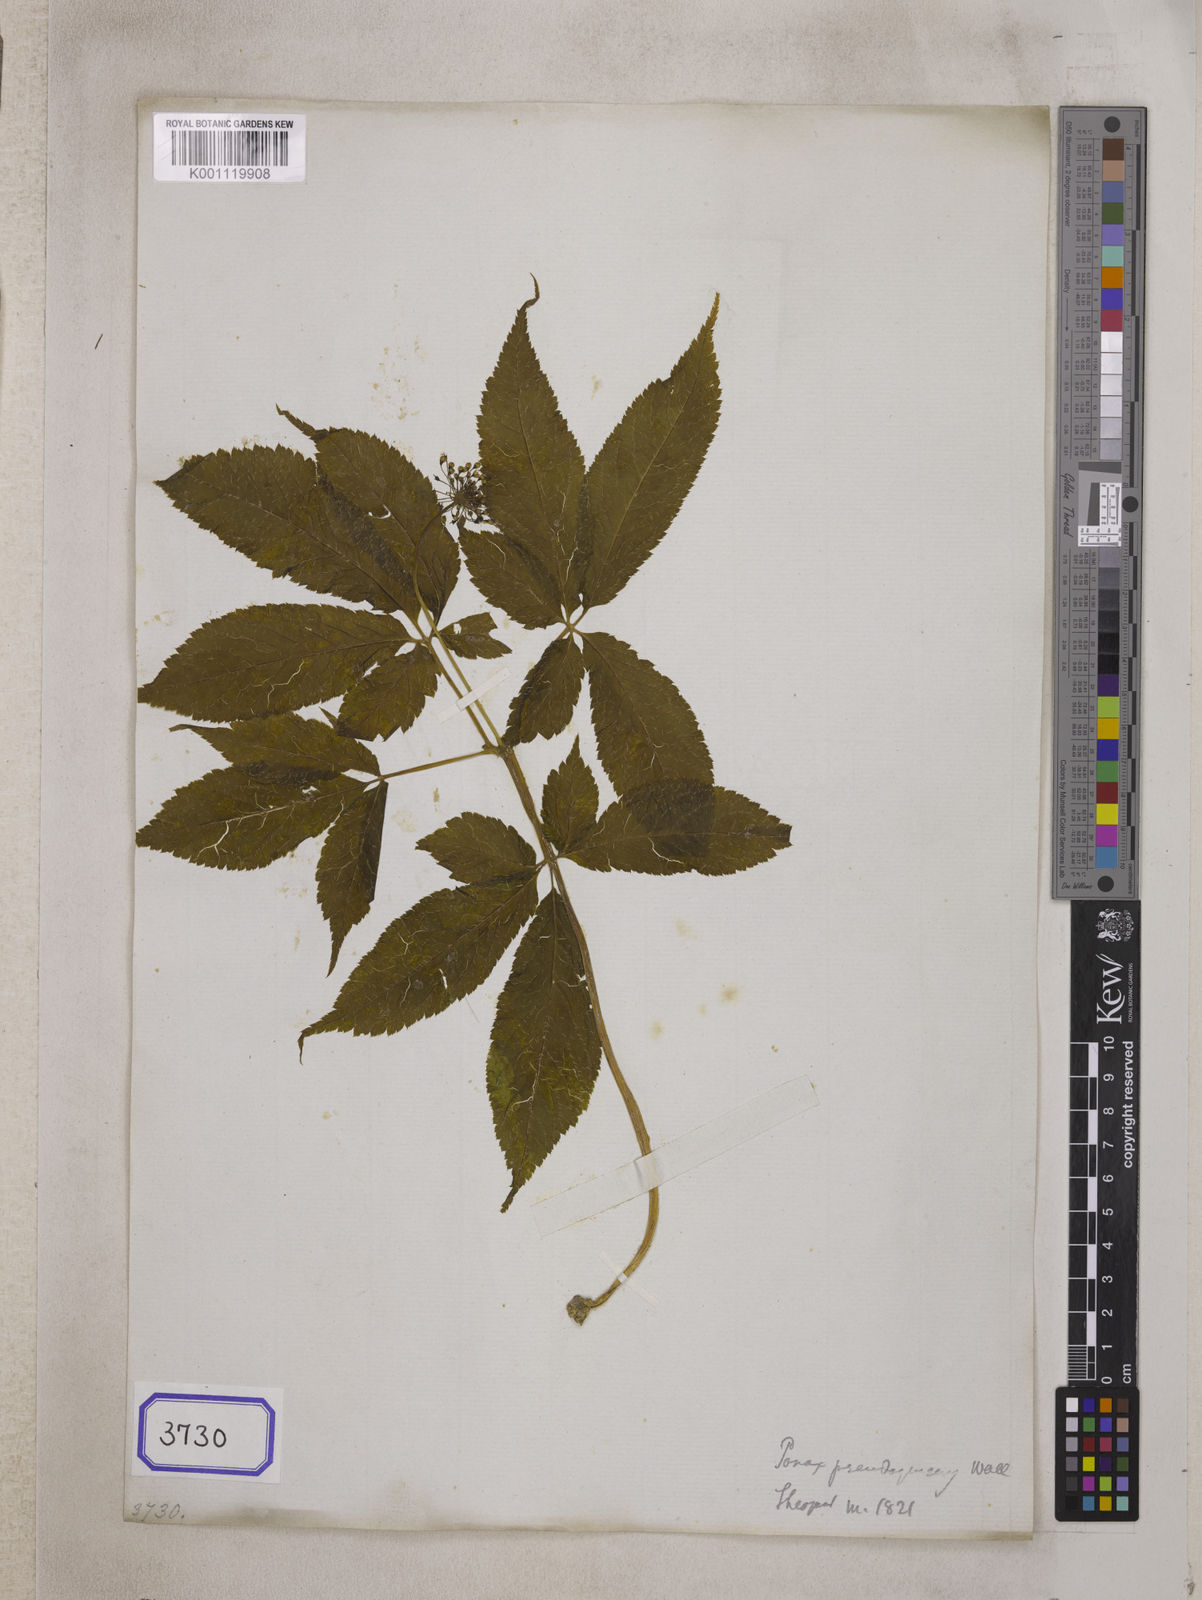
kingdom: Plantae
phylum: Tracheophyta
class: Magnoliopsida
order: Apiales
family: Araliaceae
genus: Panax
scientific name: Panax pseudoginseng
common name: Pseudoginseng
